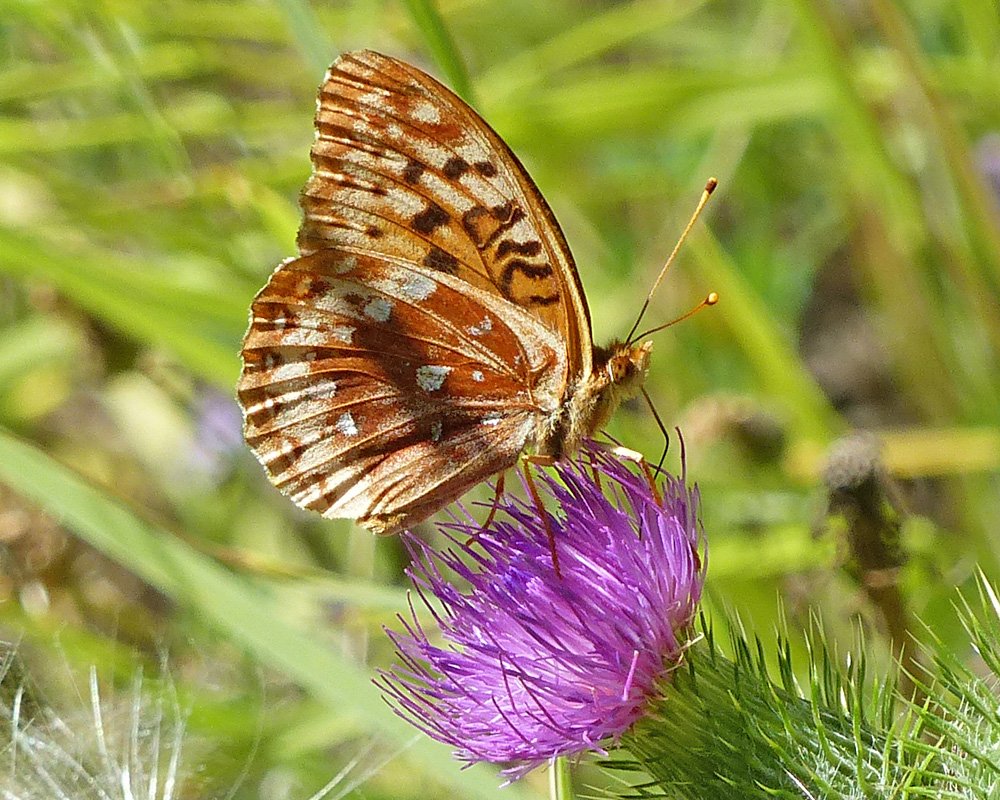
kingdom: Animalia
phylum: Arthropoda
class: Insecta
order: Lepidoptera
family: Nymphalidae
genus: Speyeria
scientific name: Speyeria cybele
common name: Great Spangled Fritillary
